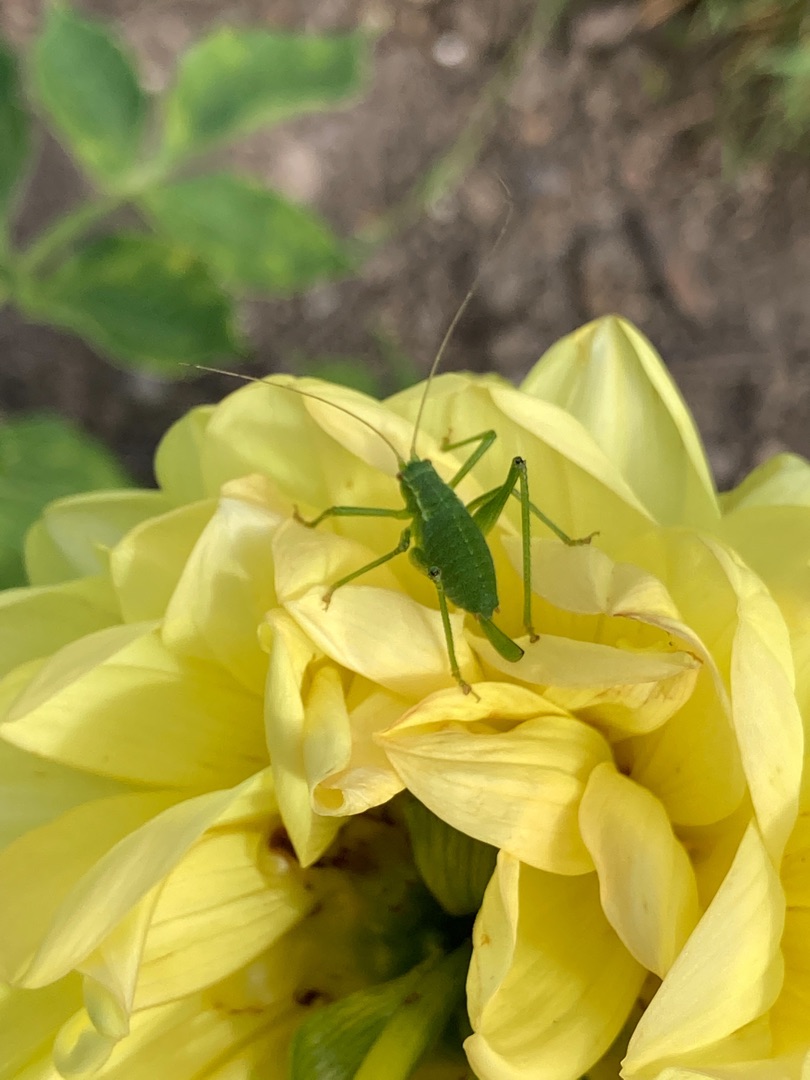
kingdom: Animalia
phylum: Arthropoda
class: Insecta
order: Orthoptera
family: Tettigoniidae
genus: Leptophyes
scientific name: Leptophyes punctatissima
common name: Krumknivgræshoppe
